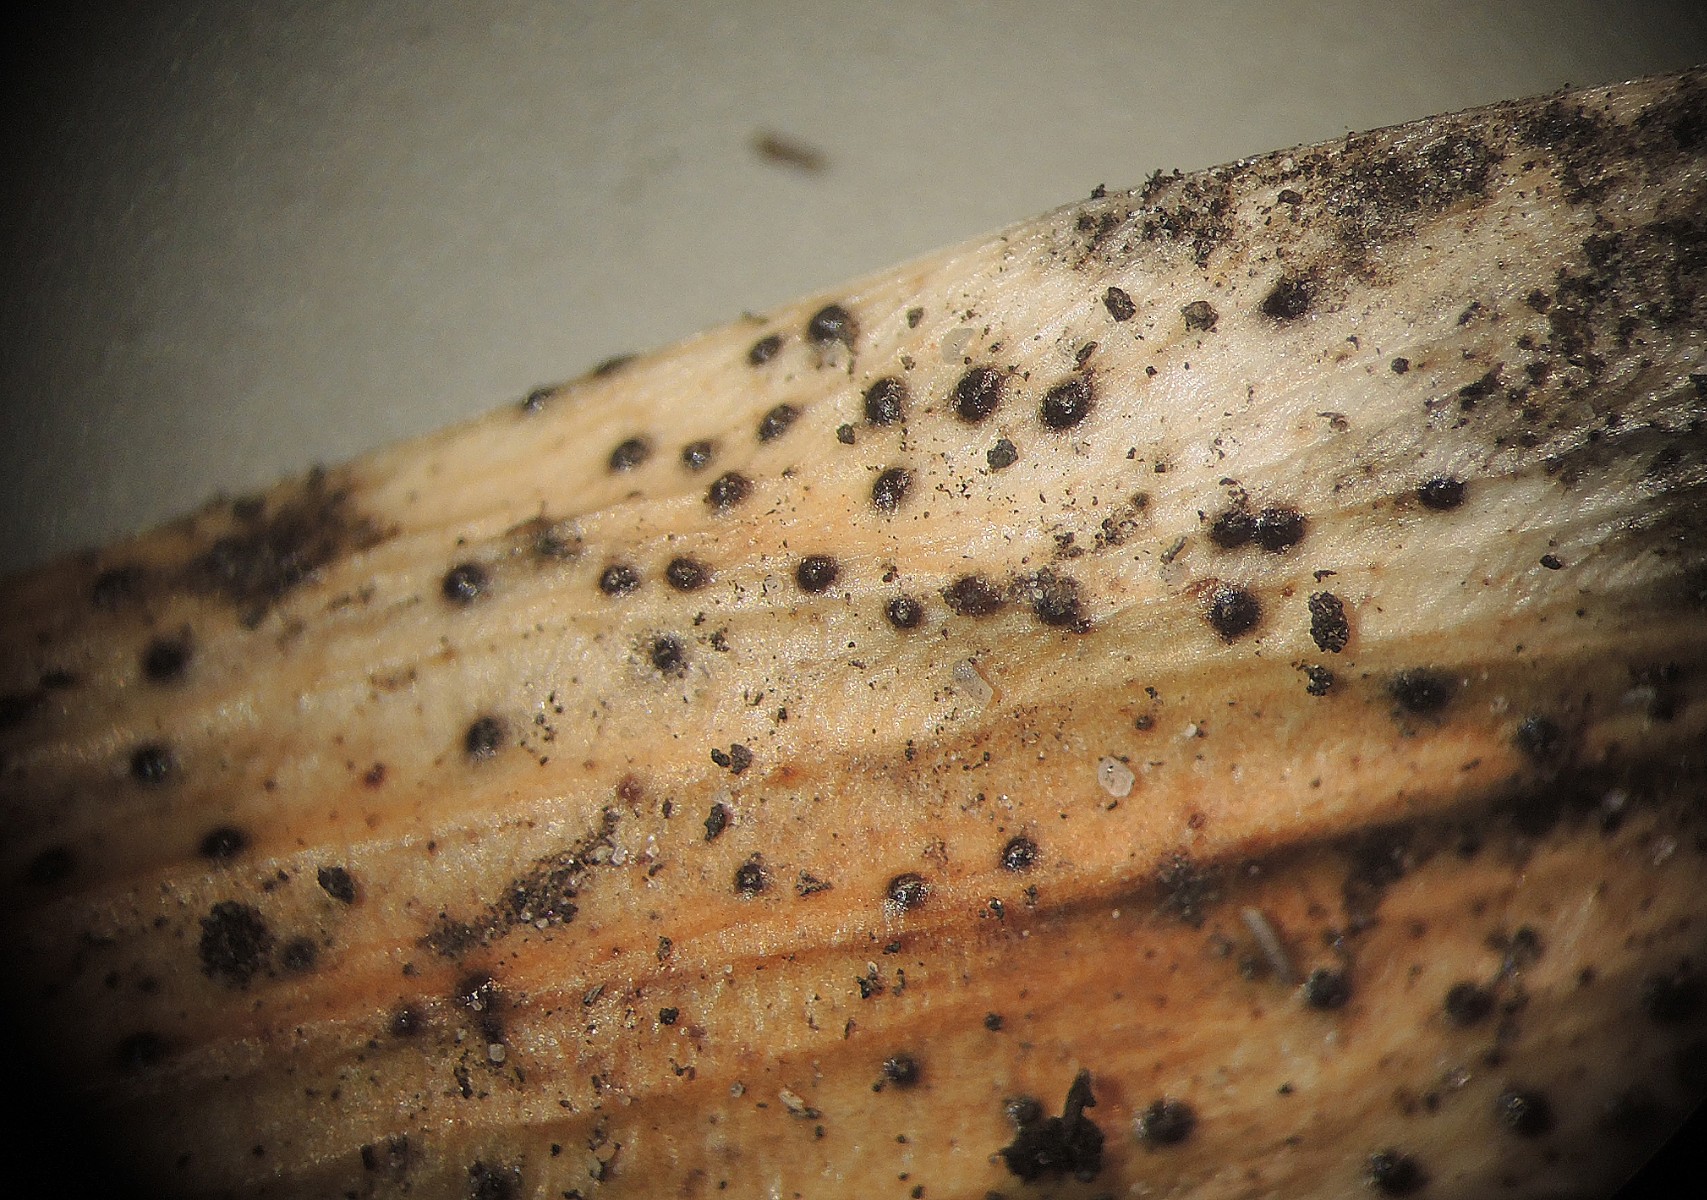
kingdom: Fungi
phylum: Ascomycota
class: Sordariomycetes
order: Diaporthales
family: Diaporthaceae
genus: Diaporthe
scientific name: Diaporthe samaricola
